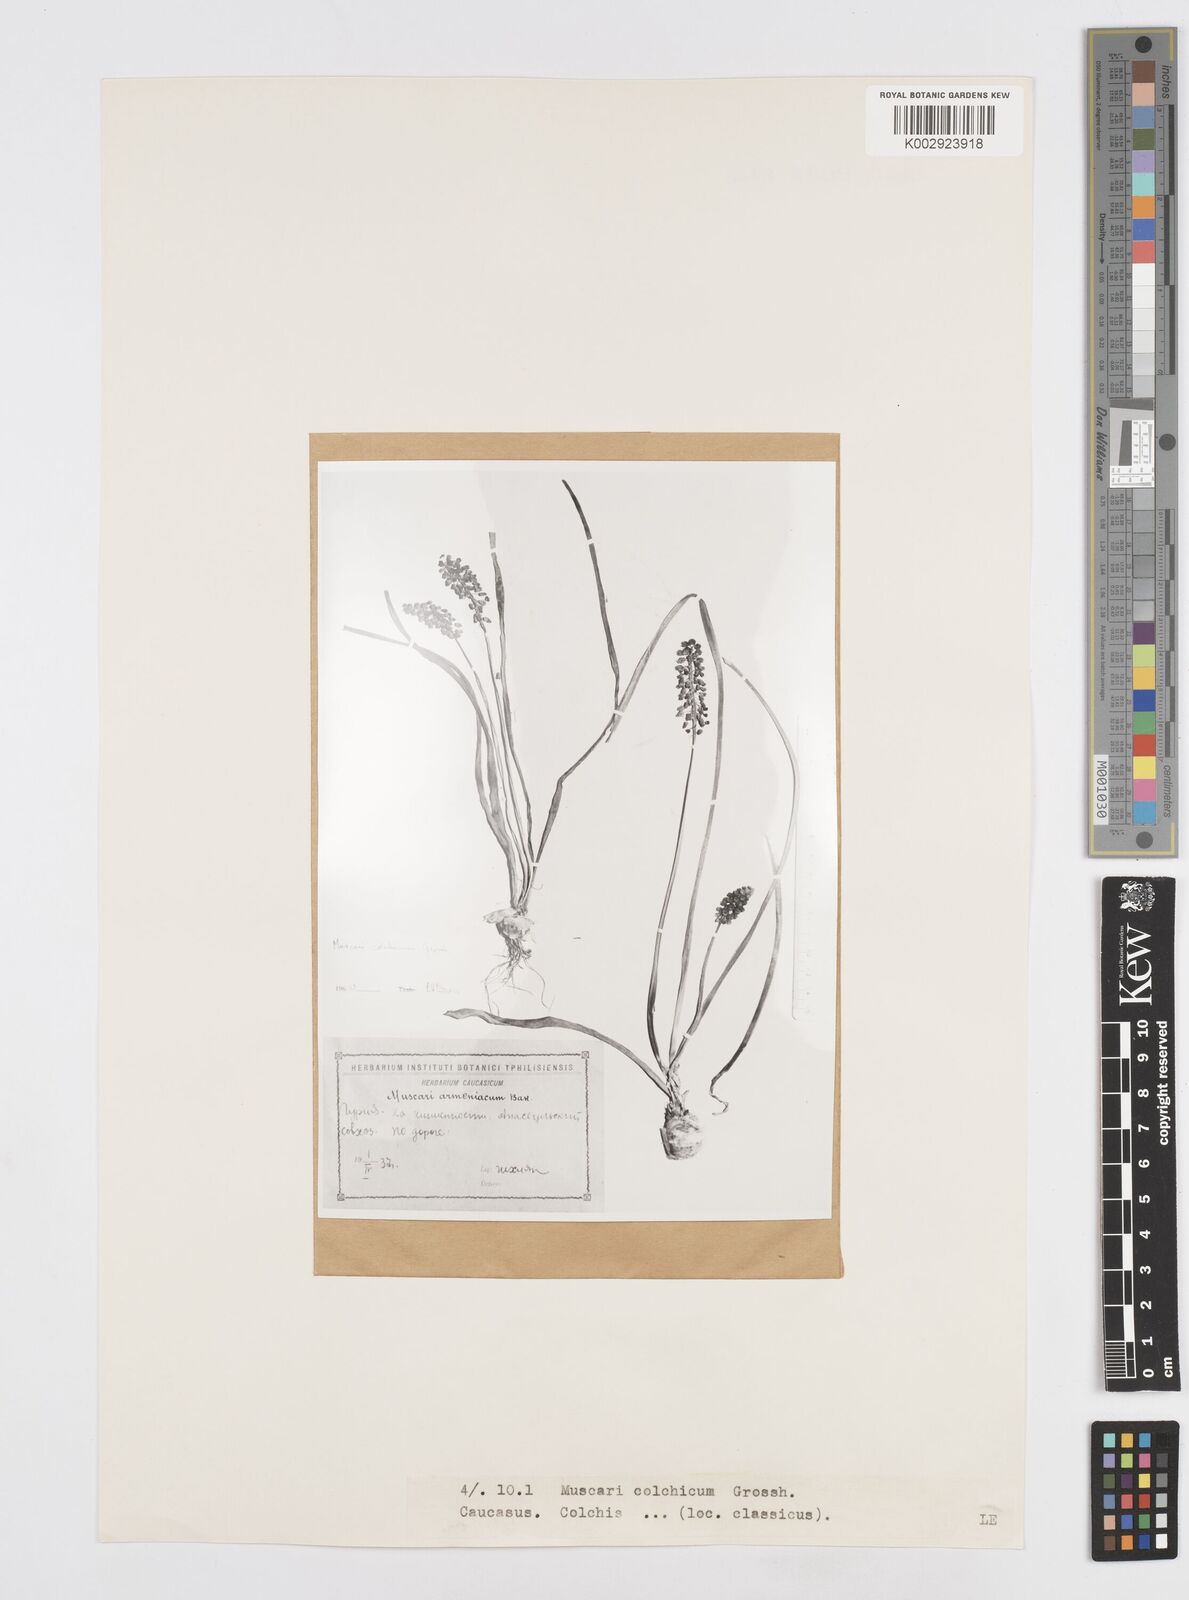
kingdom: Plantae
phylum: Tracheophyta
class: Liliopsida
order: Asparagales
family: Asparagaceae
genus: Muscari
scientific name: Muscari armeniacum
